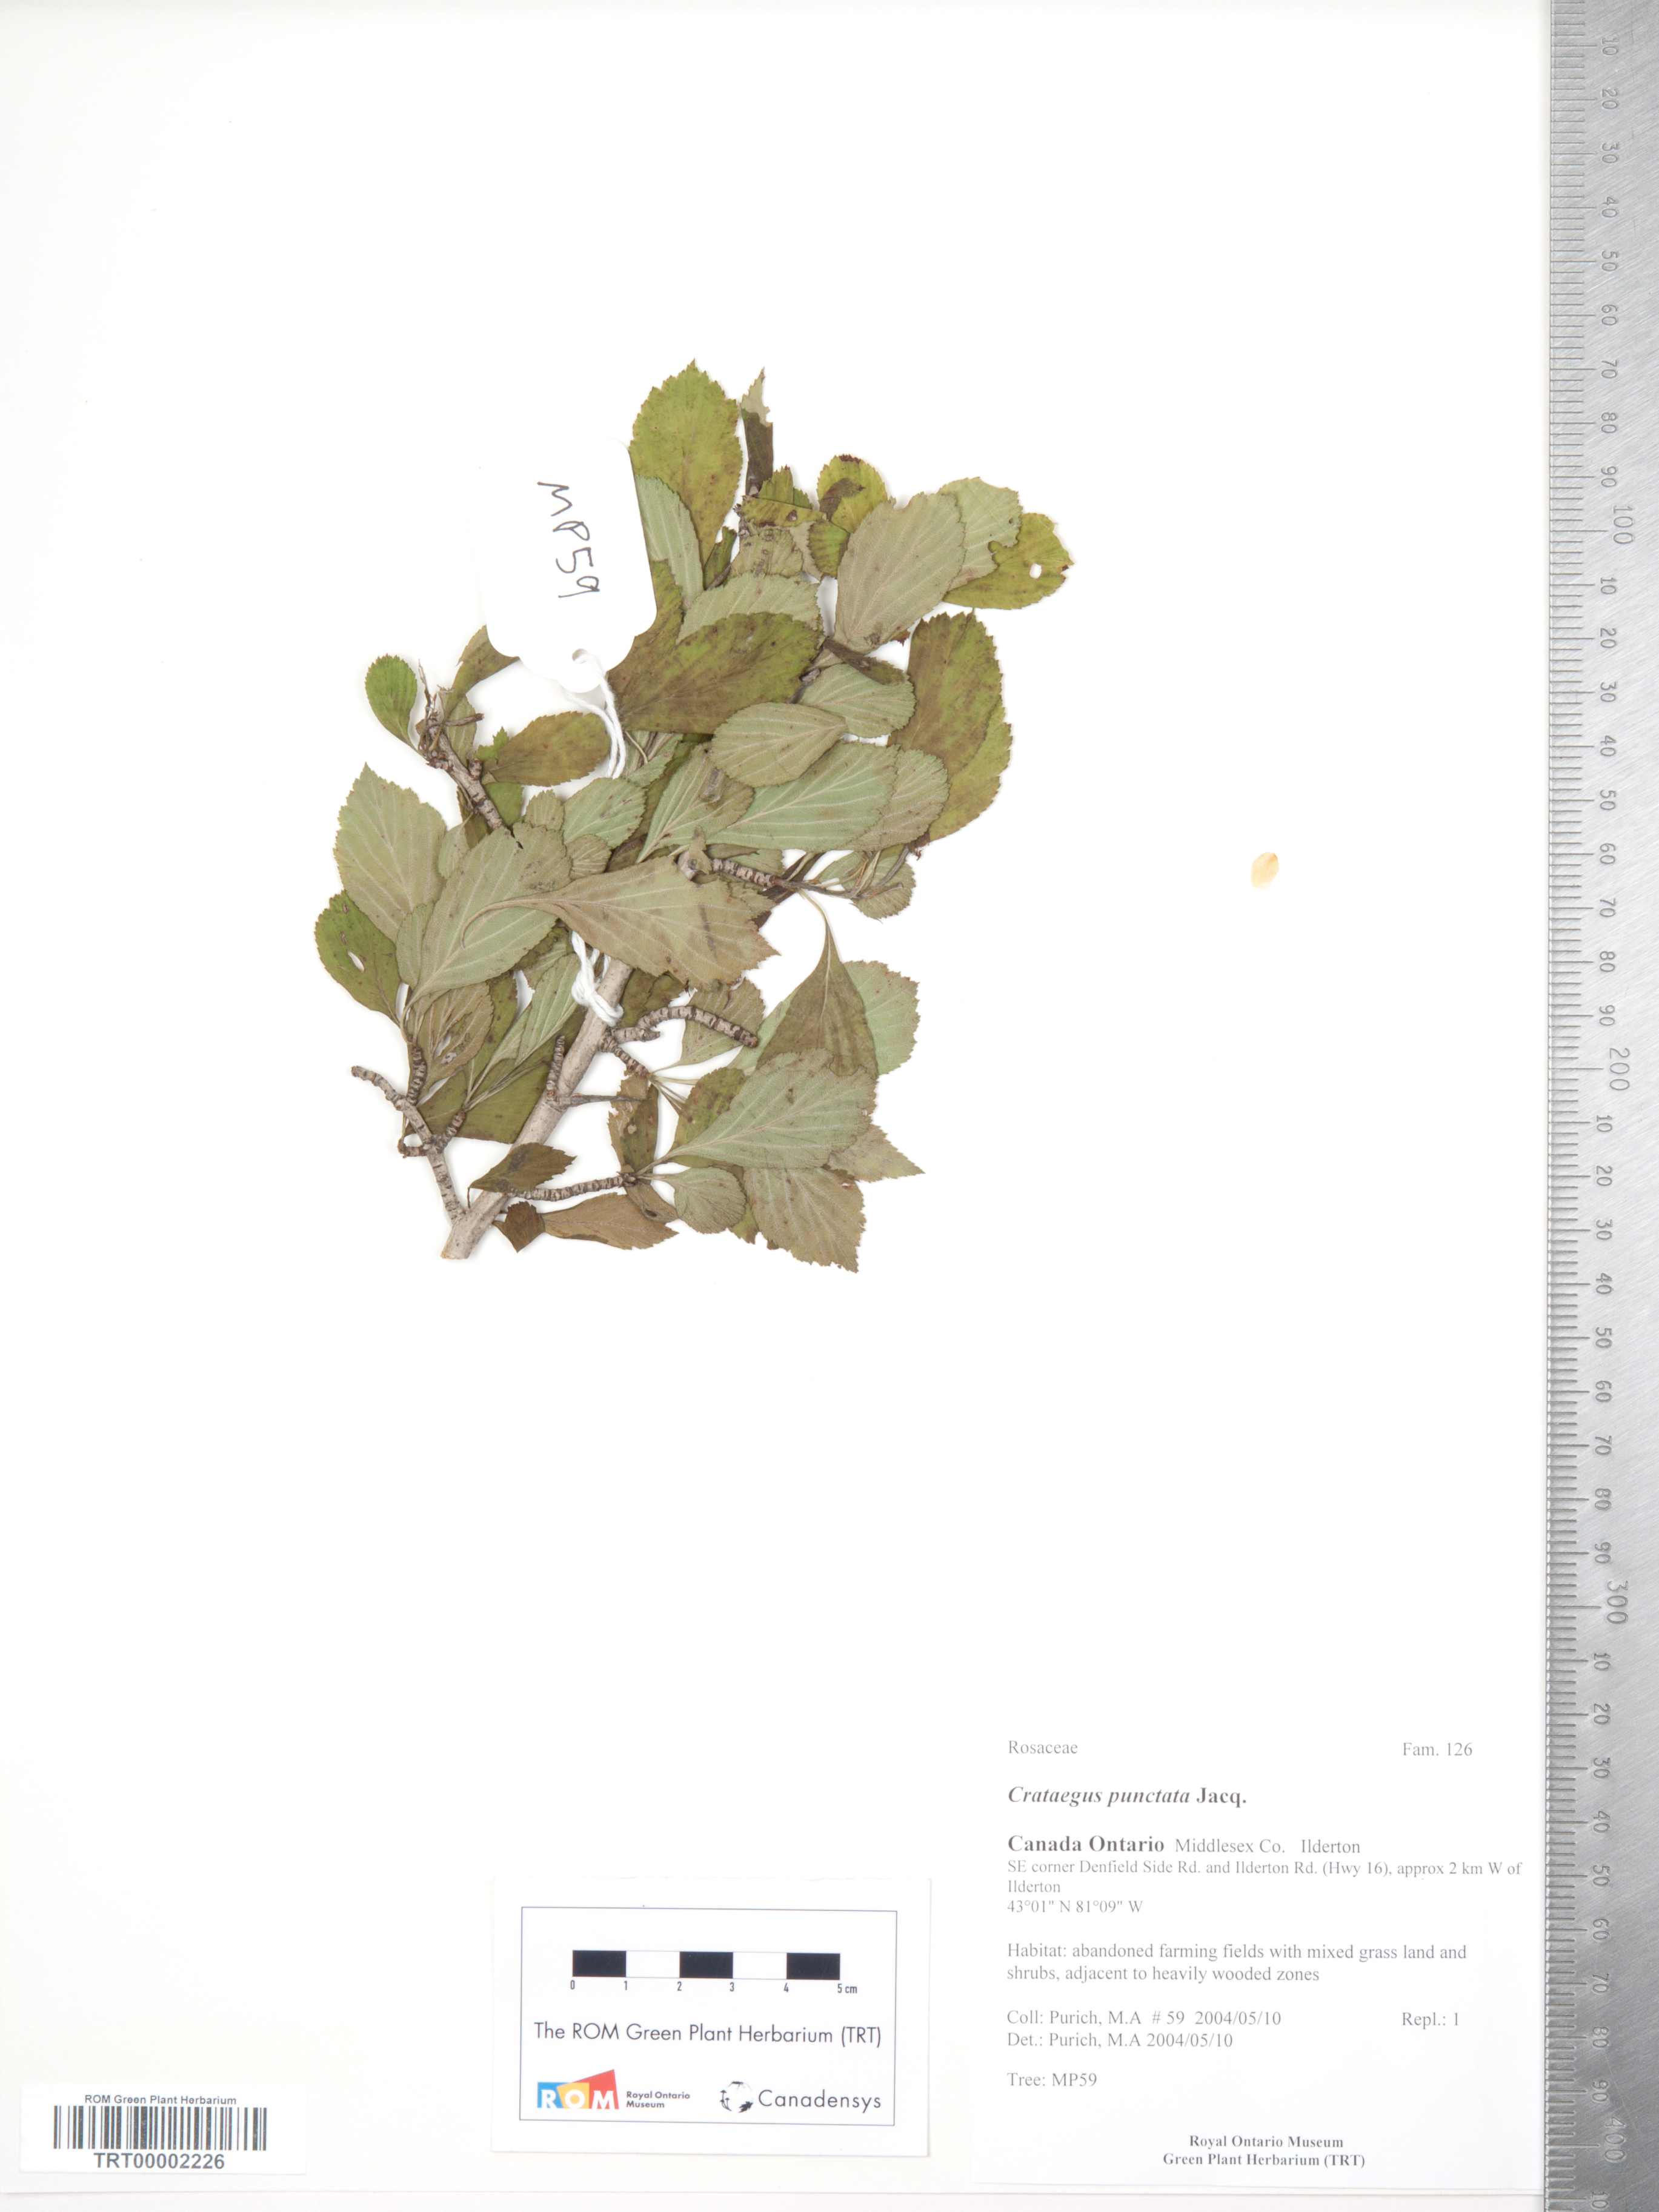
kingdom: Plantae
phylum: Tracheophyta
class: Magnoliopsida
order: Rosales
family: Rosaceae
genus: Crataegus
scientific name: Crataegus punctata
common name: Dotted hawthorn
